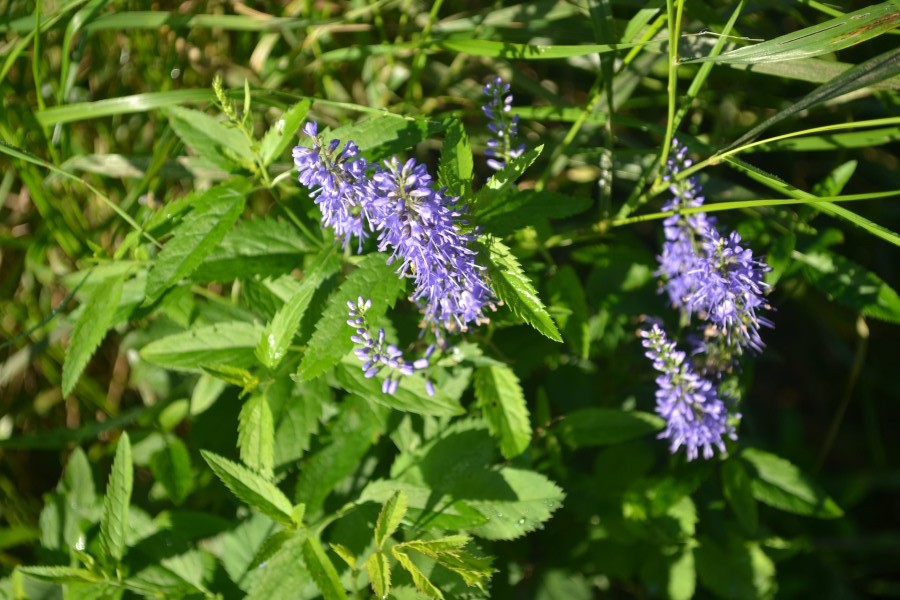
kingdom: Plantae
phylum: Tracheophyta
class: Magnoliopsida
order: Lamiales
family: Plantaginaceae
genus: Veronica
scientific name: Veronica longifolia
